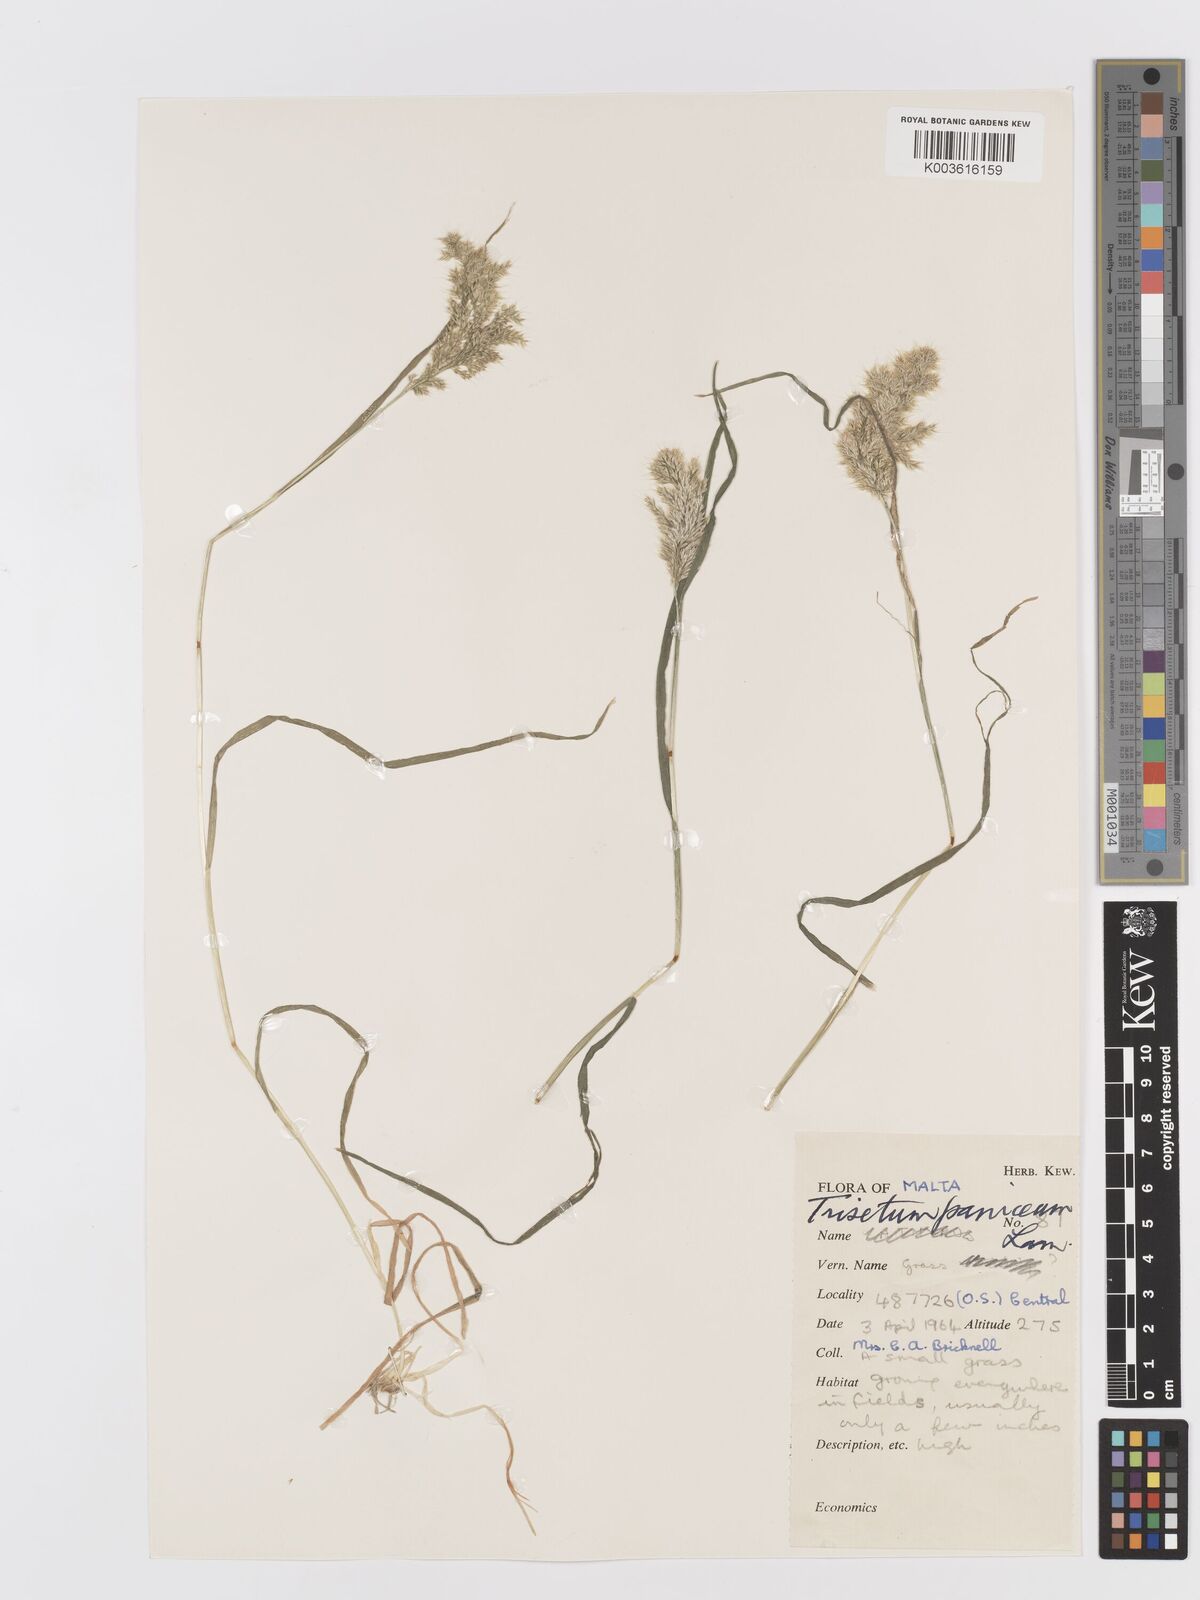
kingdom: Plantae
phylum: Tracheophyta
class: Liliopsida
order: Poales
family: Poaceae
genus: Trisetaria
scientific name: Trisetaria panicea
